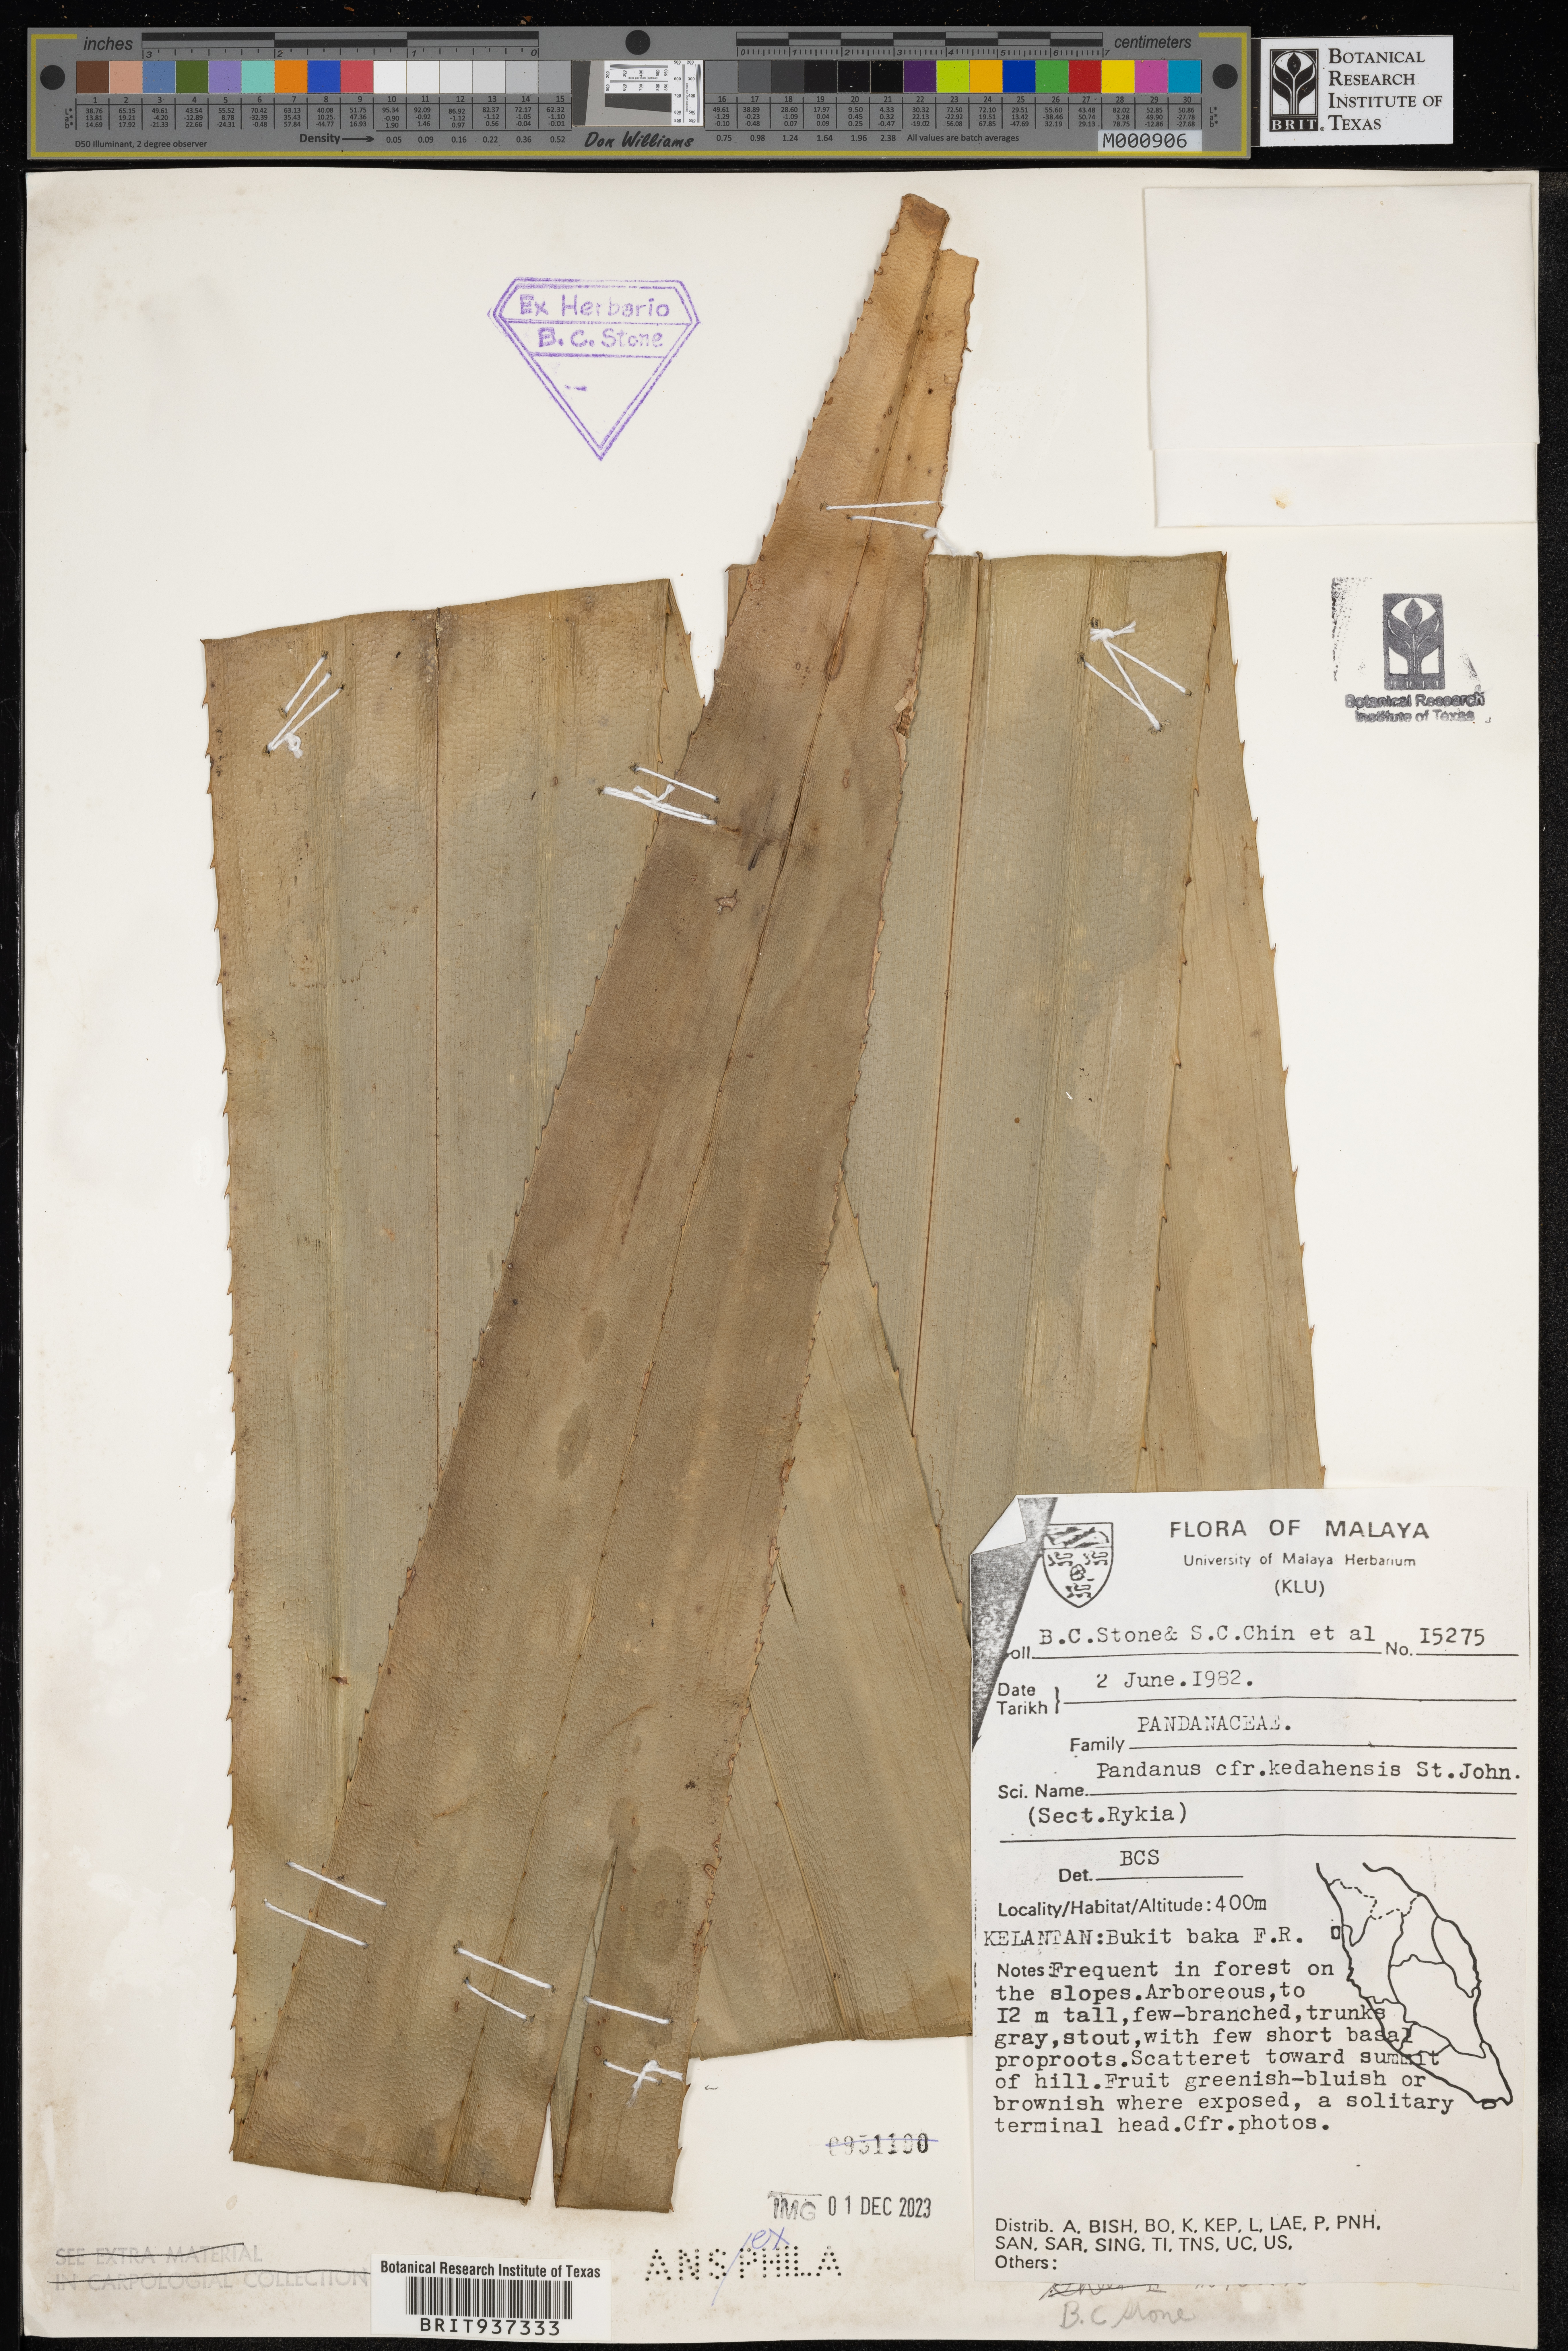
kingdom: Plantae
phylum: Tracheophyta
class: Liliopsida
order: Pandanales
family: Pandanaceae
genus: Pandanus
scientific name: Pandanus
